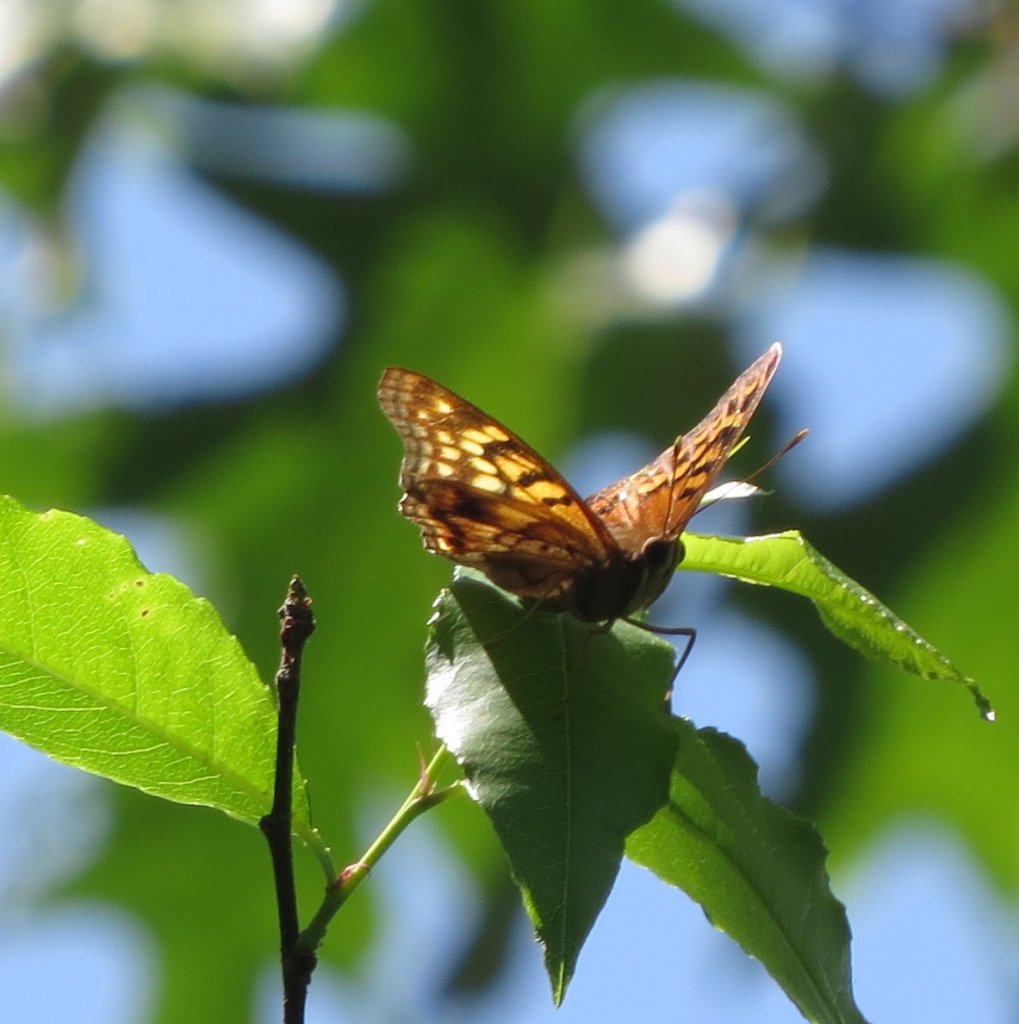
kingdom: Animalia
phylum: Arthropoda
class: Insecta
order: Lepidoptera
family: Nymphalidae
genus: Asterocampa
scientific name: Asterocampa clyton
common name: Tawny Emperor
